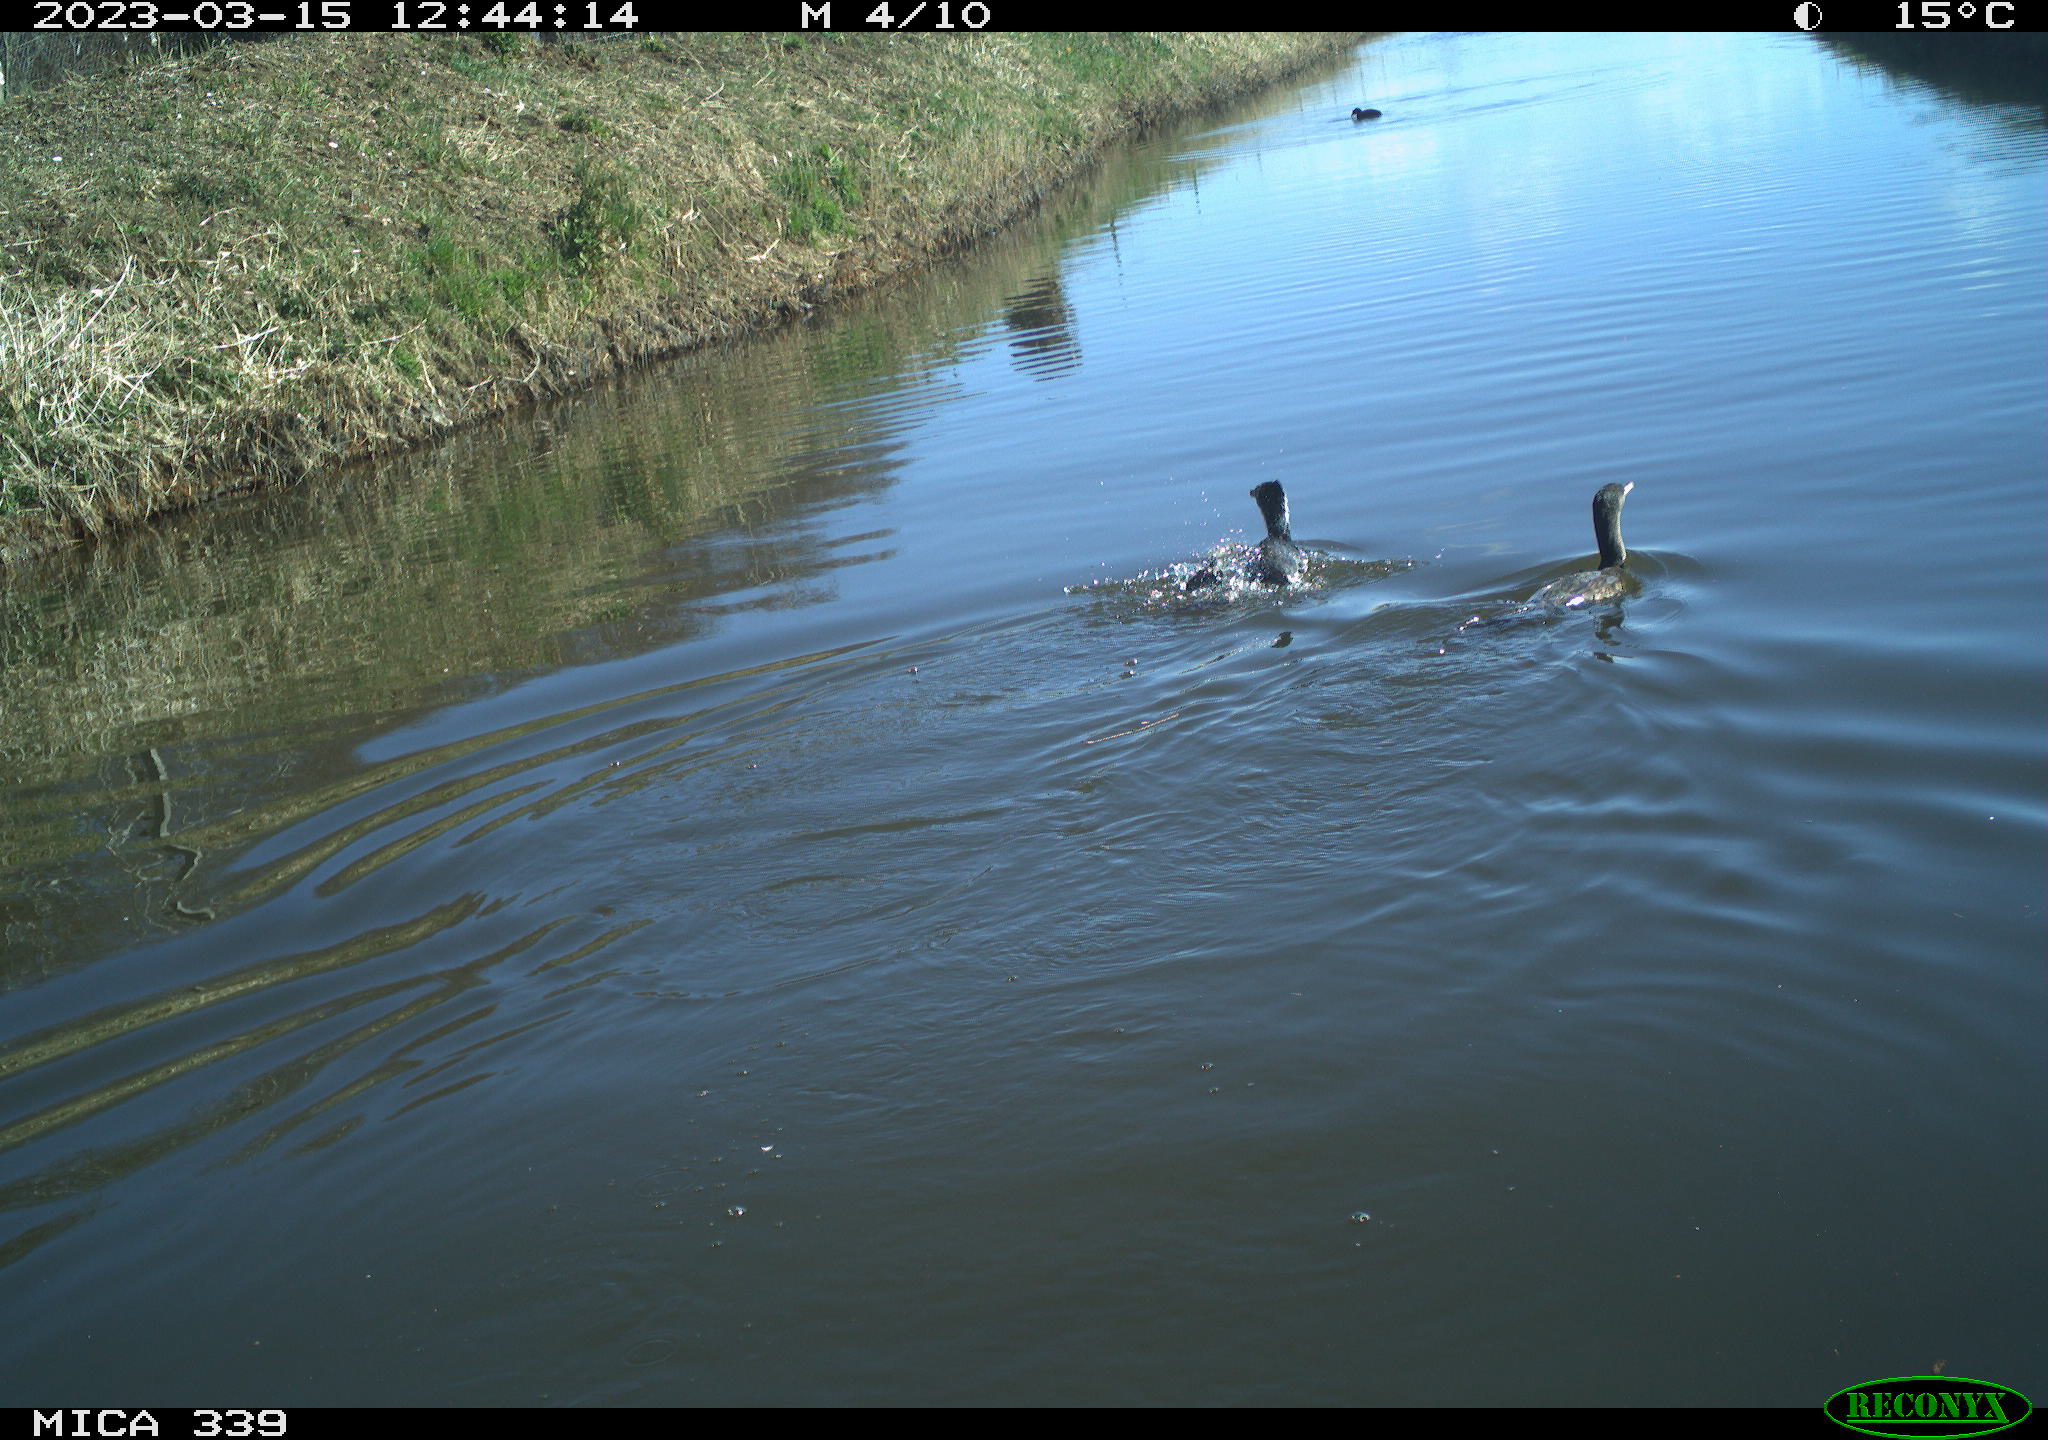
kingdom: Animalia
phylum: Chordata
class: Aves
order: Suliformes
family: Phalacrocoracidae
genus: Phalacrocorax
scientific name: Phalacrocorax carbo
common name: Great cormorant
